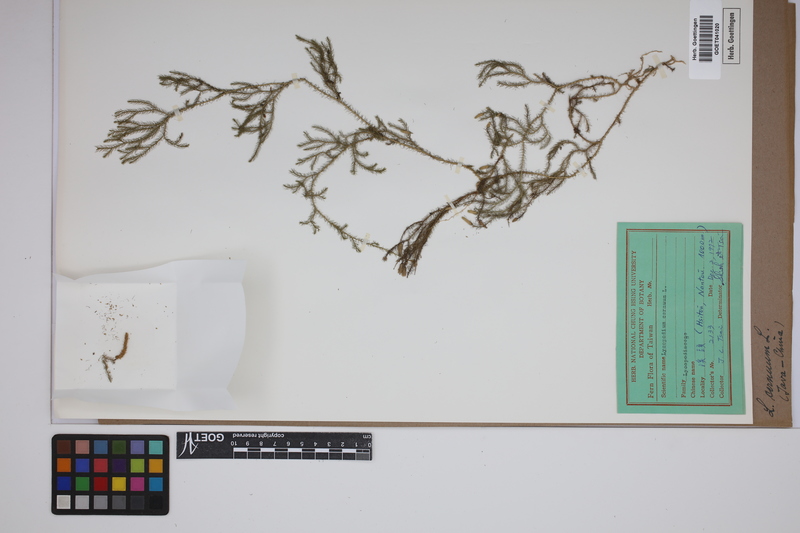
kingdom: Plantae
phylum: Tracheophyta
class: Lycopodiopsida
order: Lycopodiales
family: Lycopodiaceae
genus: Palhinhaea
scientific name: Palhinhaea cernua
